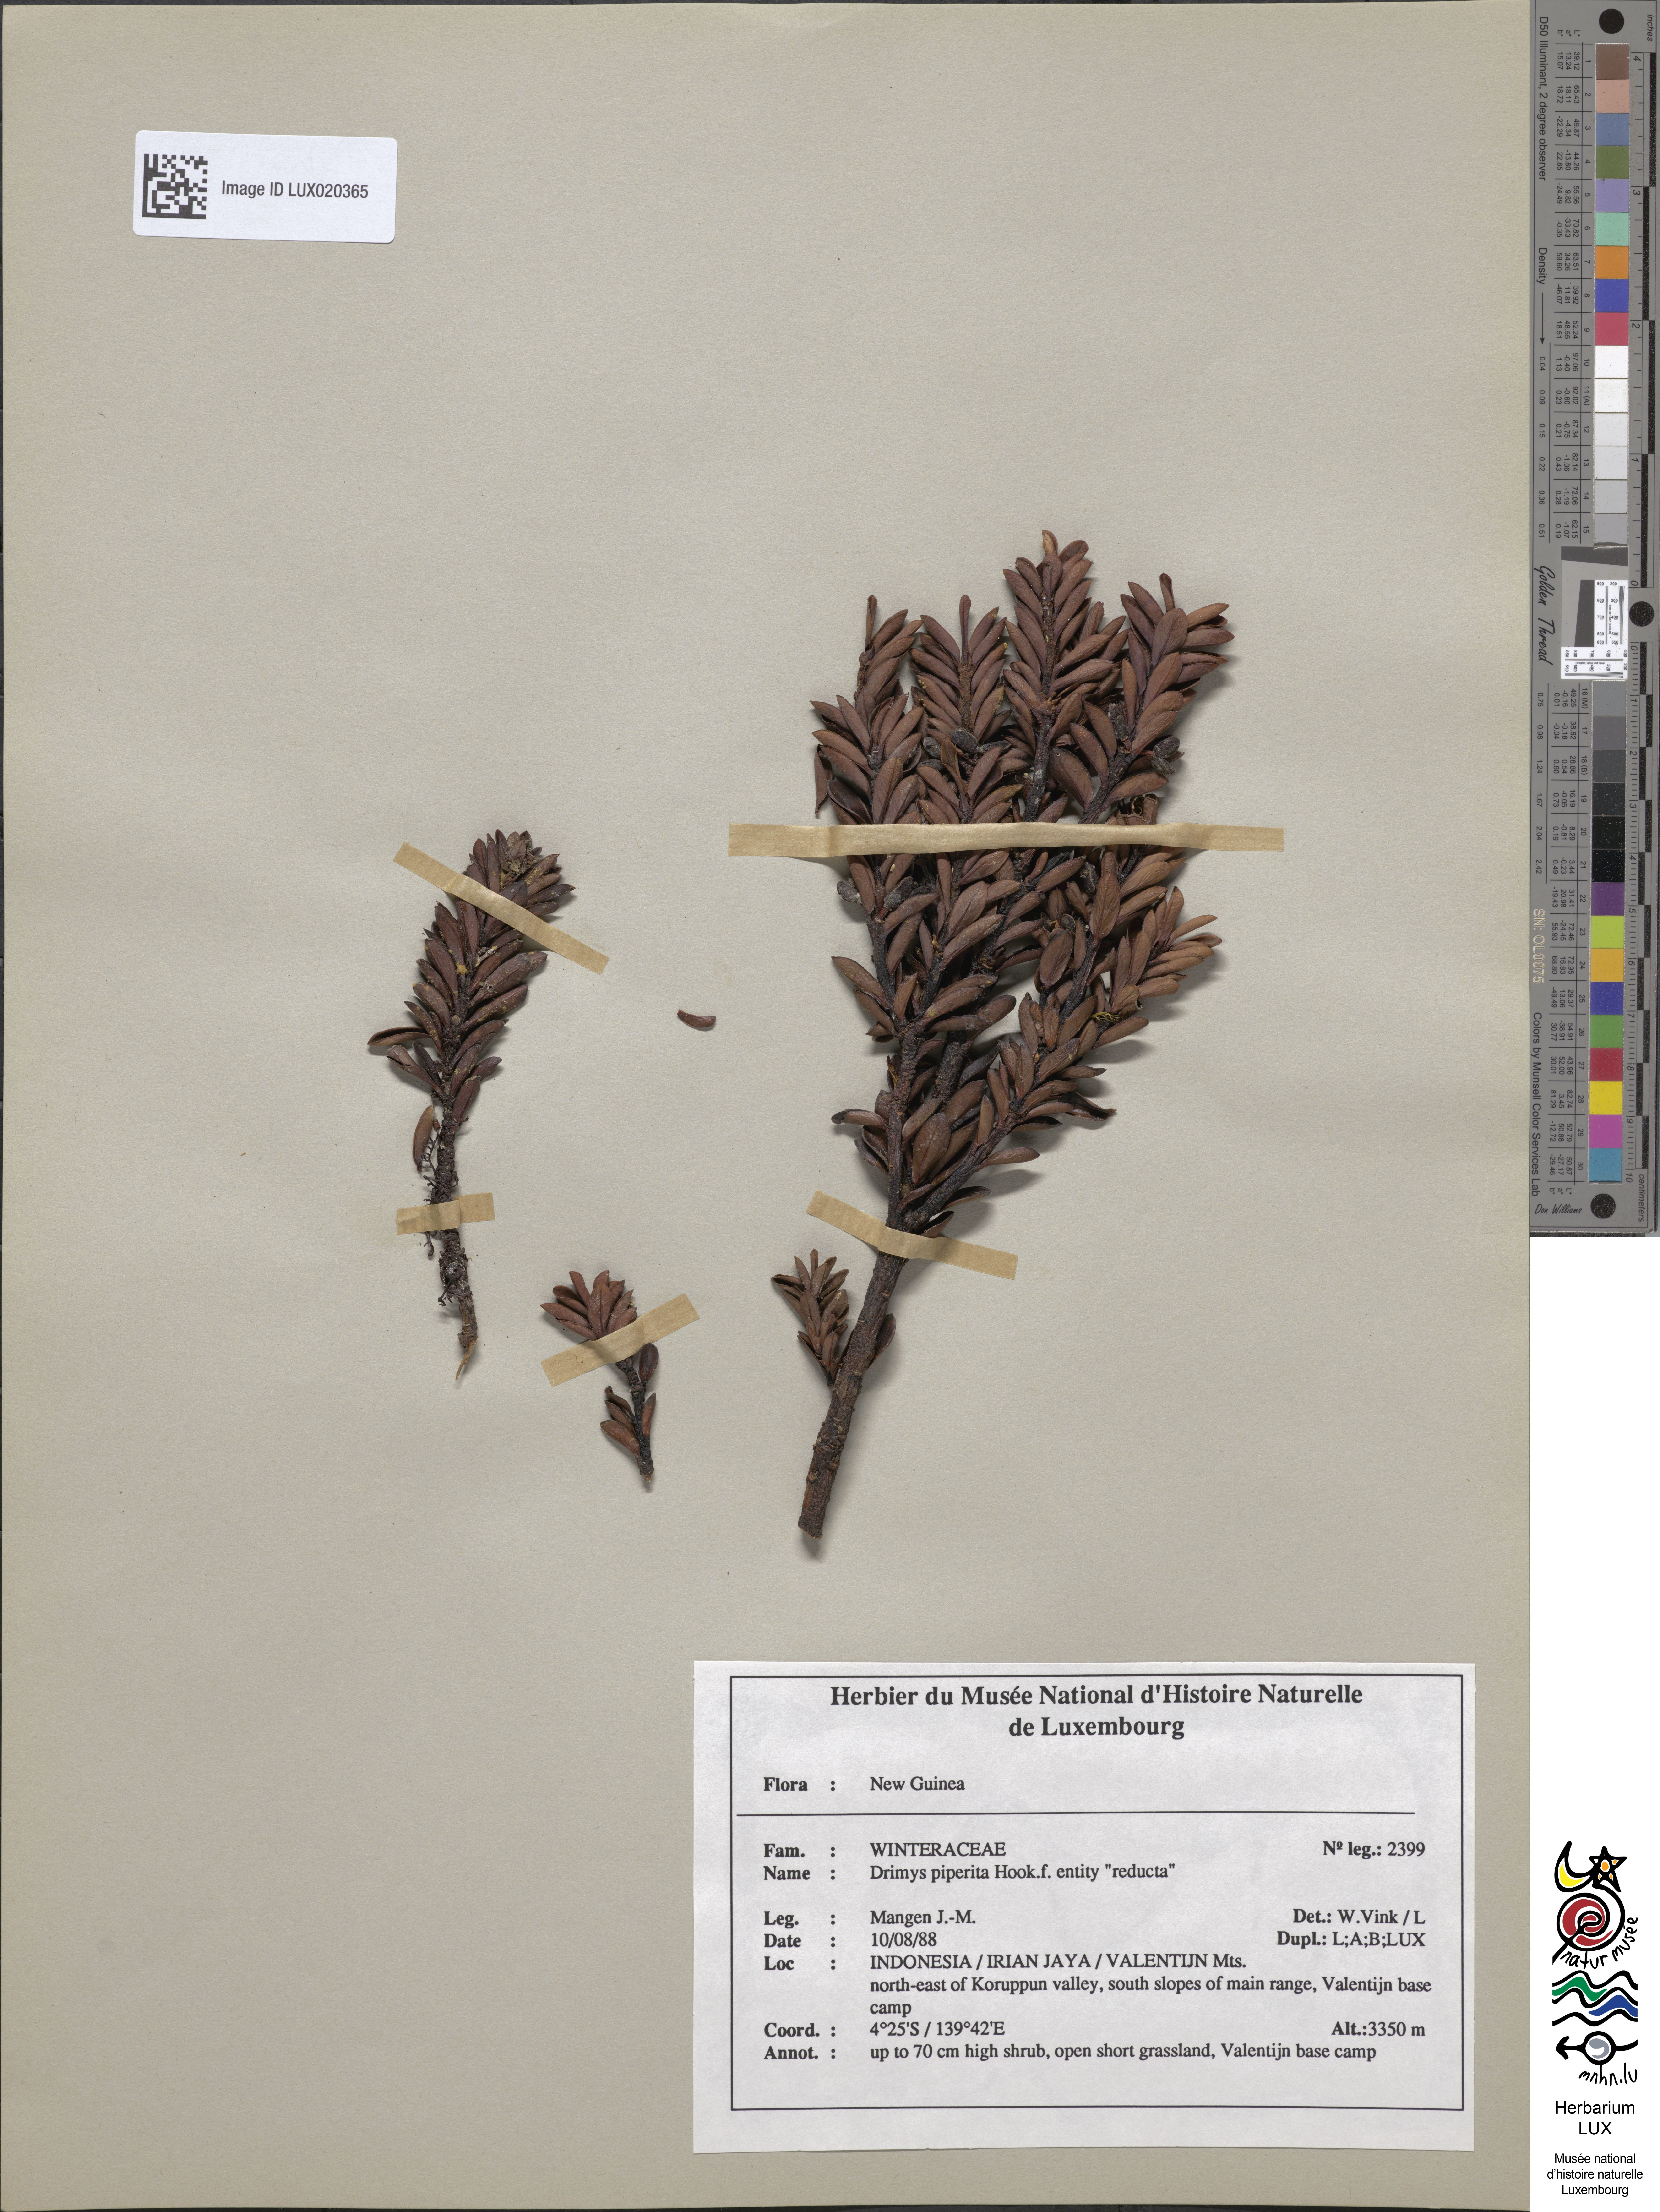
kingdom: Plantae
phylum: Tracheophyta
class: Magnoliopsida
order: Canellales
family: Winteraceae
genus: Drimys
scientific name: Drimys piperita
